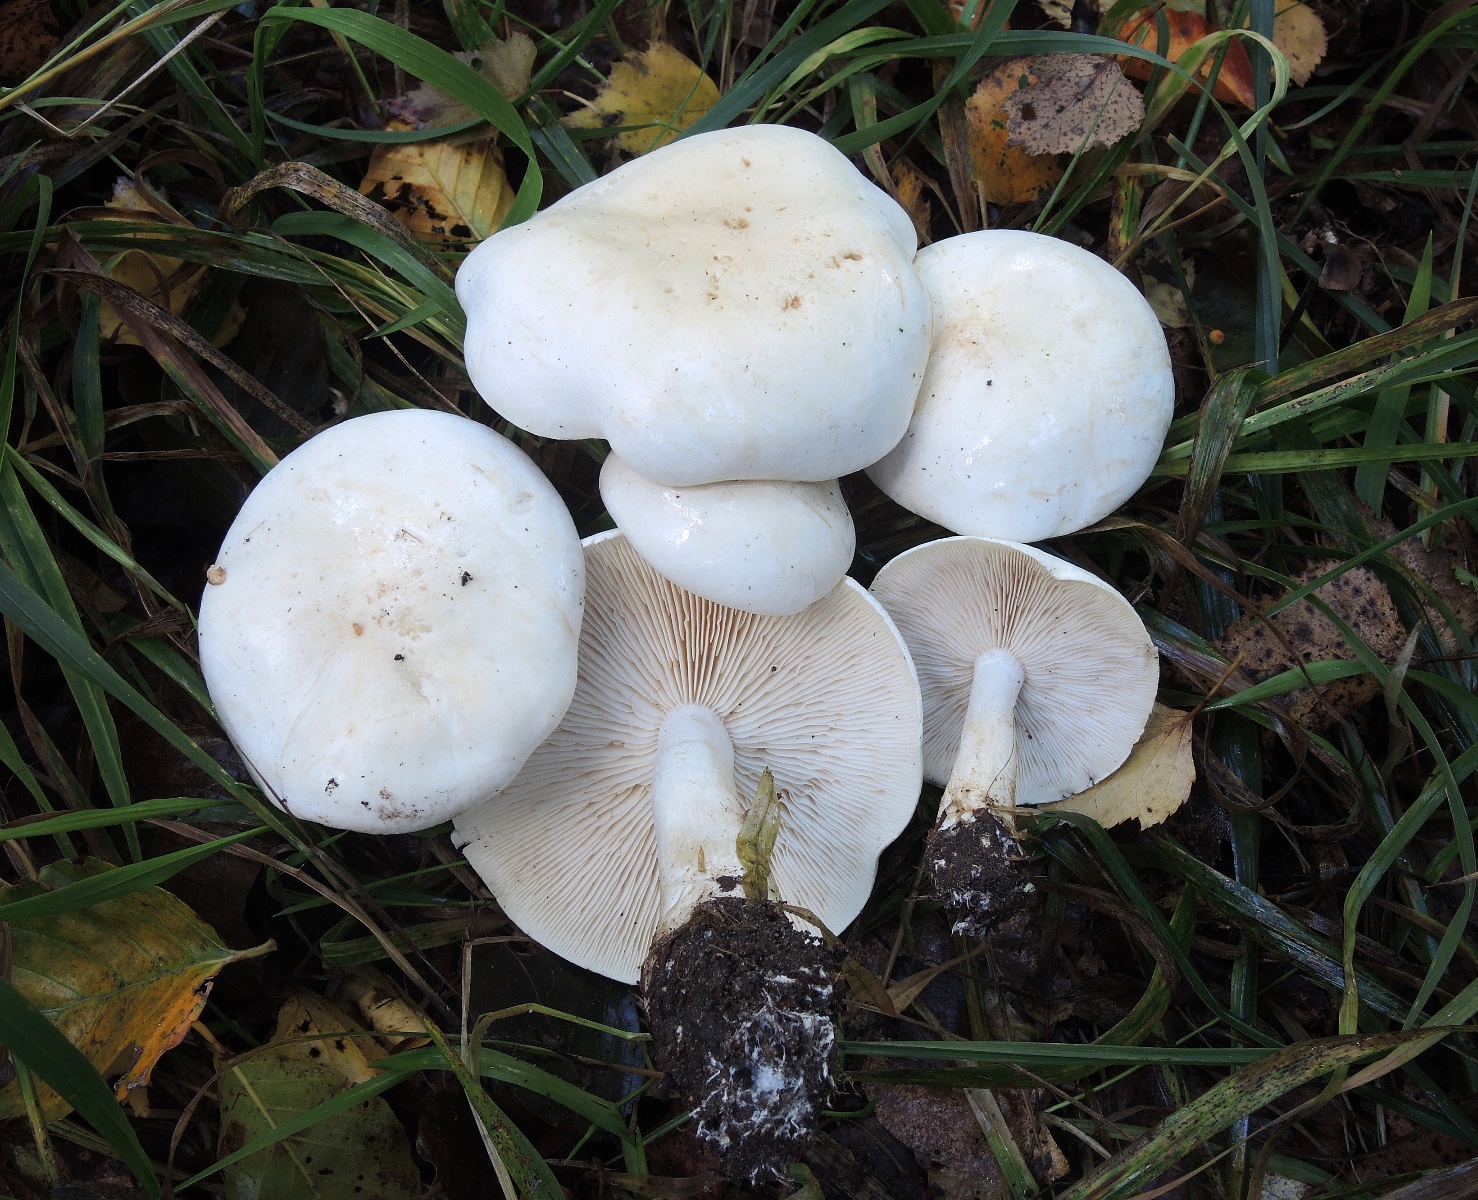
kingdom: Fungi
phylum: Basidiomycota
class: Agaricomycetes
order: Agaricales
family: Tricholomataceae
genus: Tricholoma
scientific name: Tricholoma stiparophyllum
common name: hvid ridderhat
